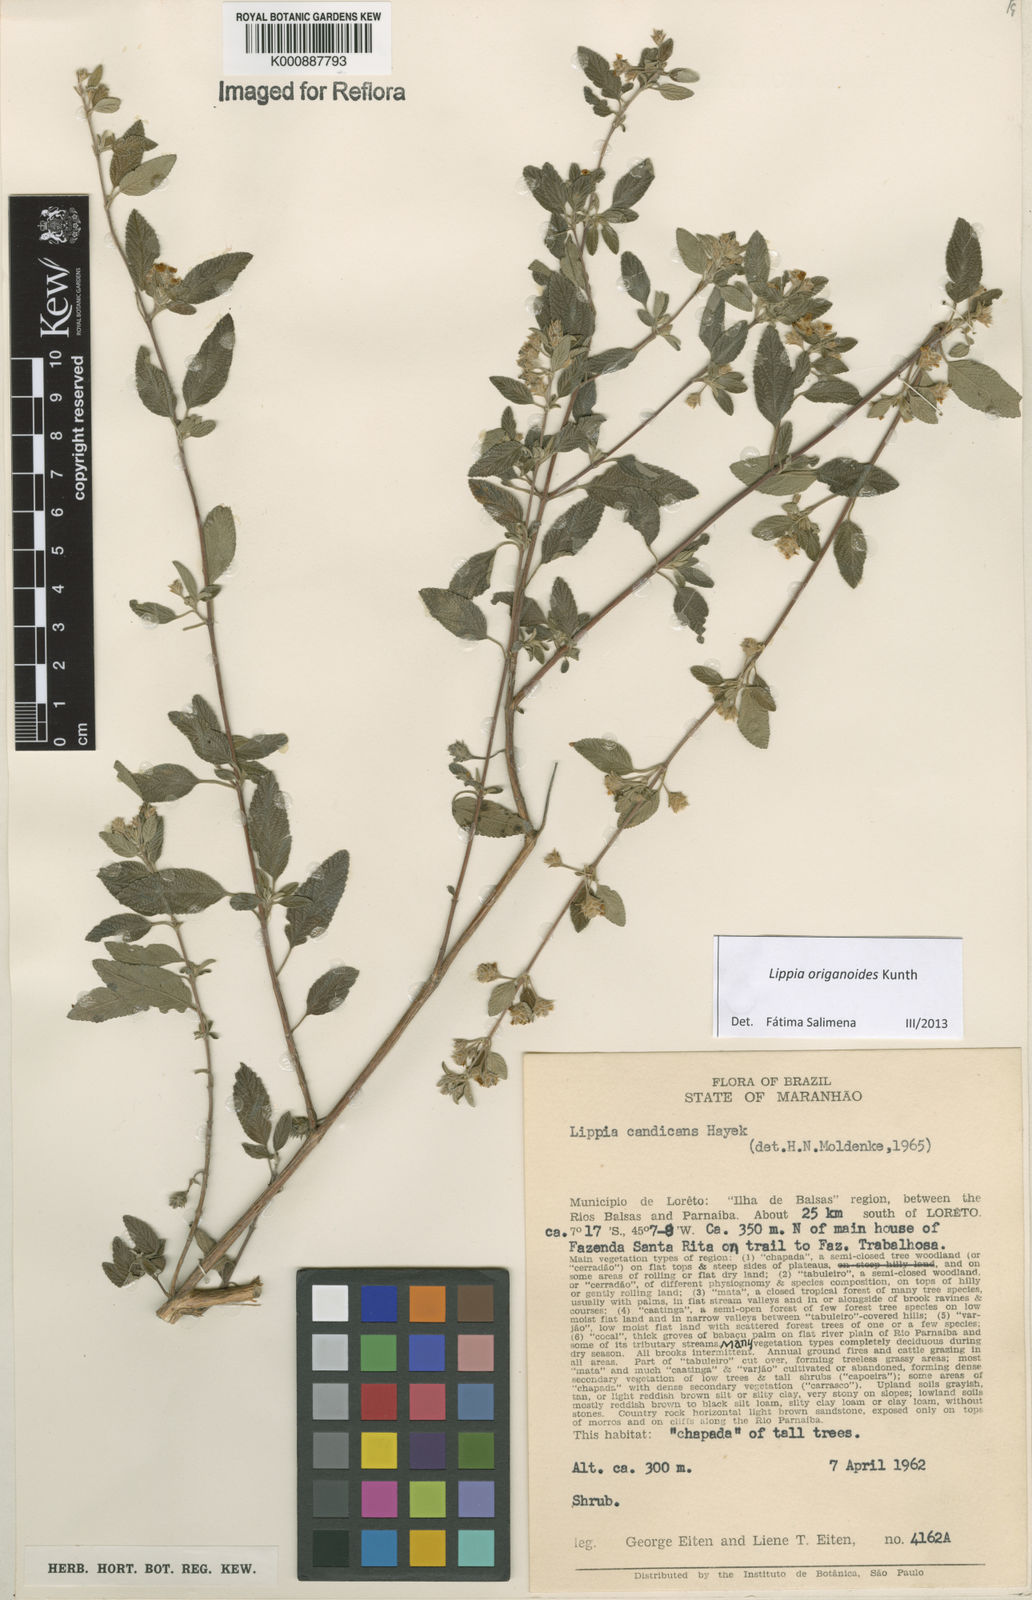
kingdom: Plantae
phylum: Tracheophyta
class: Magnoliopsida
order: Lamiales
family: Verbenaceae
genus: Lippia
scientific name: Lippia origanoides
